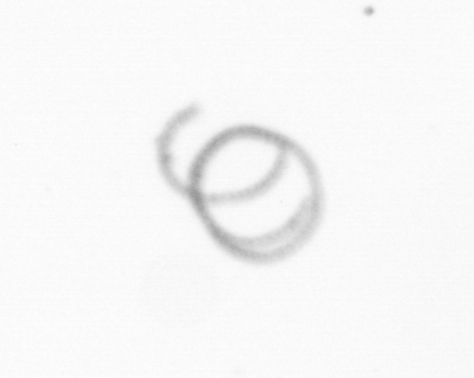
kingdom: Chromista
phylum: Ochrophyta
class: Bacillariophyceae
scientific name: Bacillariophyceae
